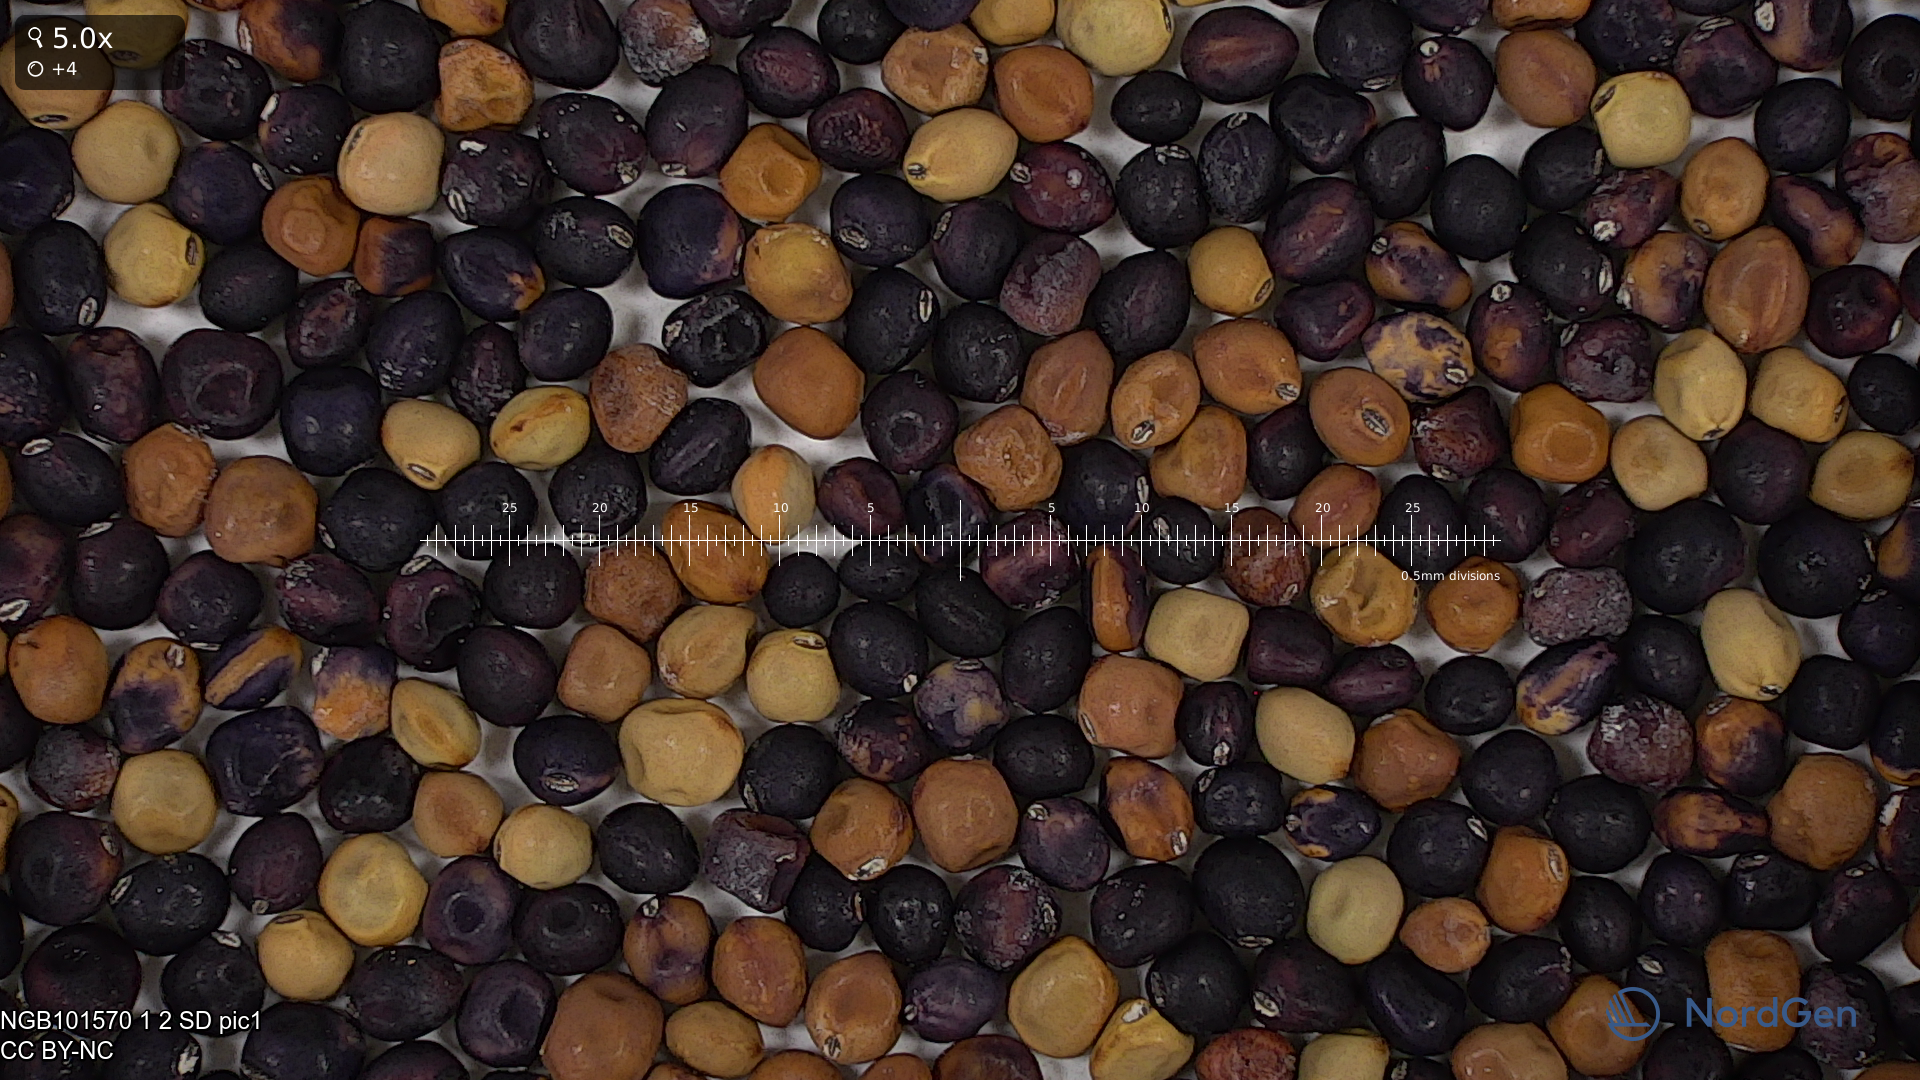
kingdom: Plantae
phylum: Tracheophyta
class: Magnoliopsida
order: Fabales
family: Fabaceae
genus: Lathyrus
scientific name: Lathyrus oleraceus
